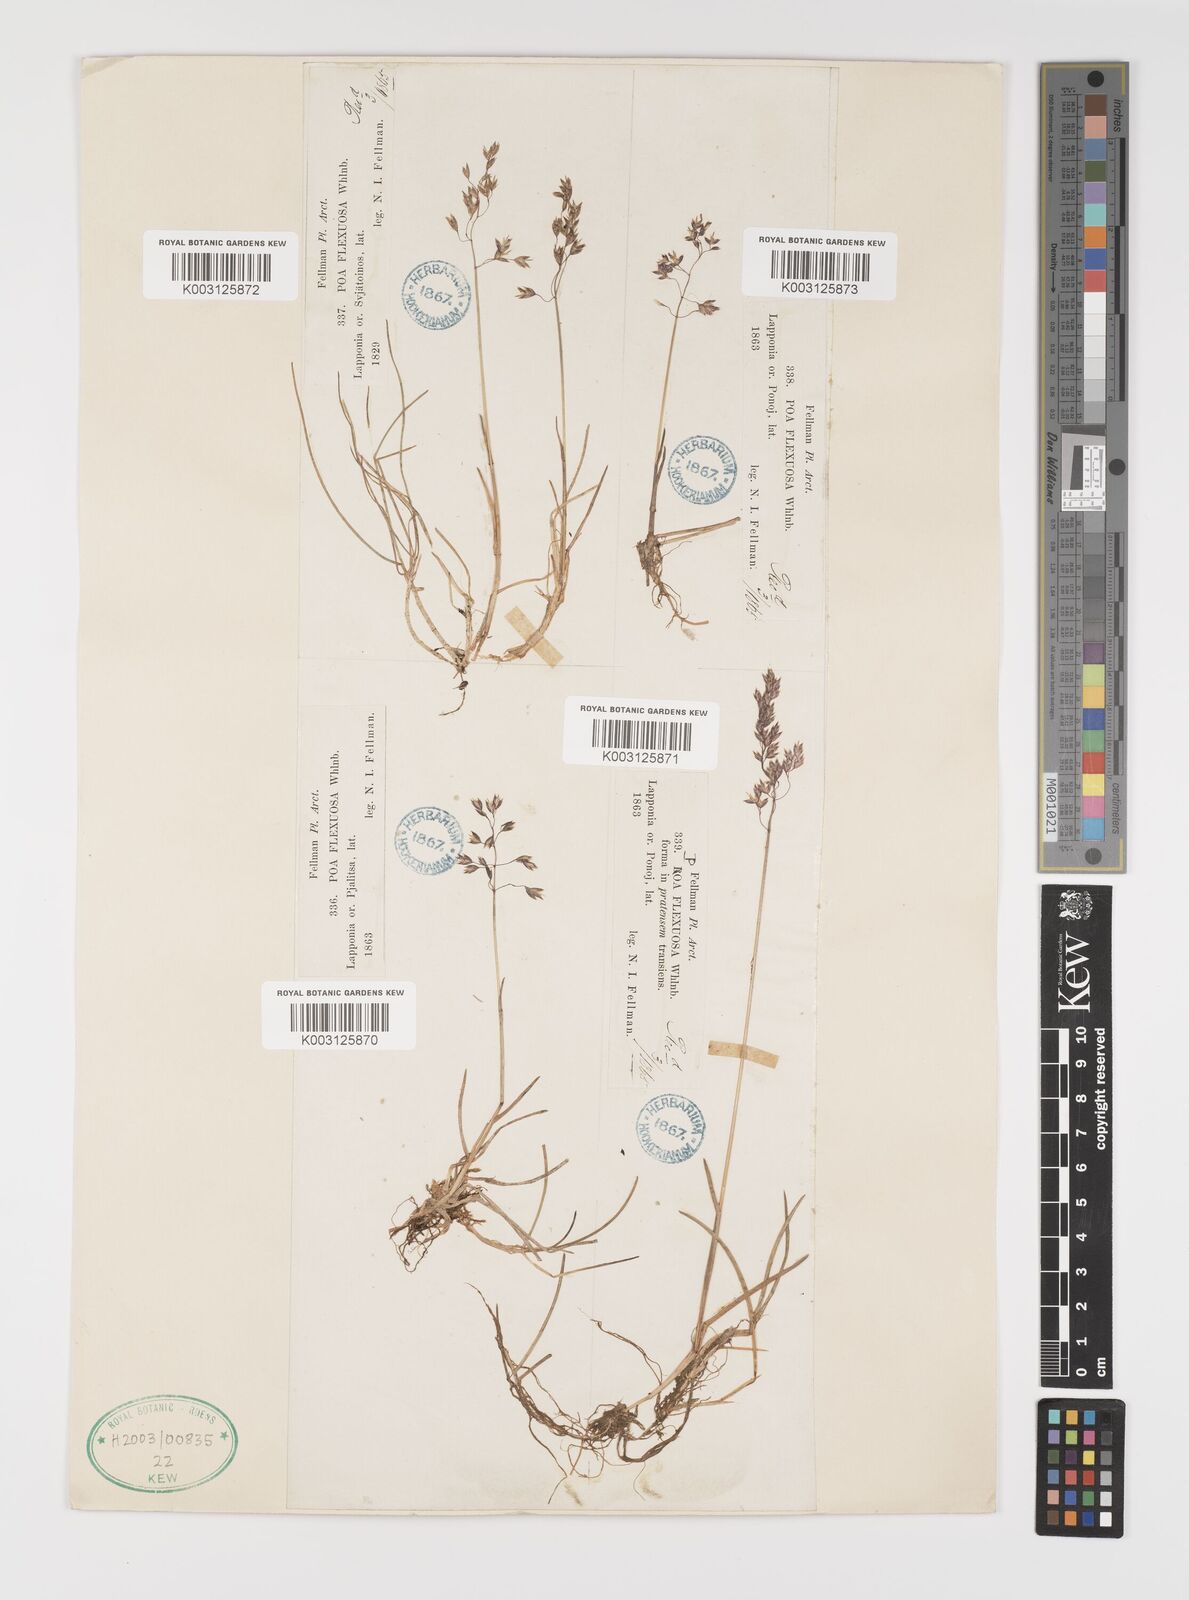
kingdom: Plantae
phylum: Tracheophyta
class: Liliopsida
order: Poales
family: Poaceae
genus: Eragrostis
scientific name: Eragrostis cilianensis
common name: Stinkgrass
